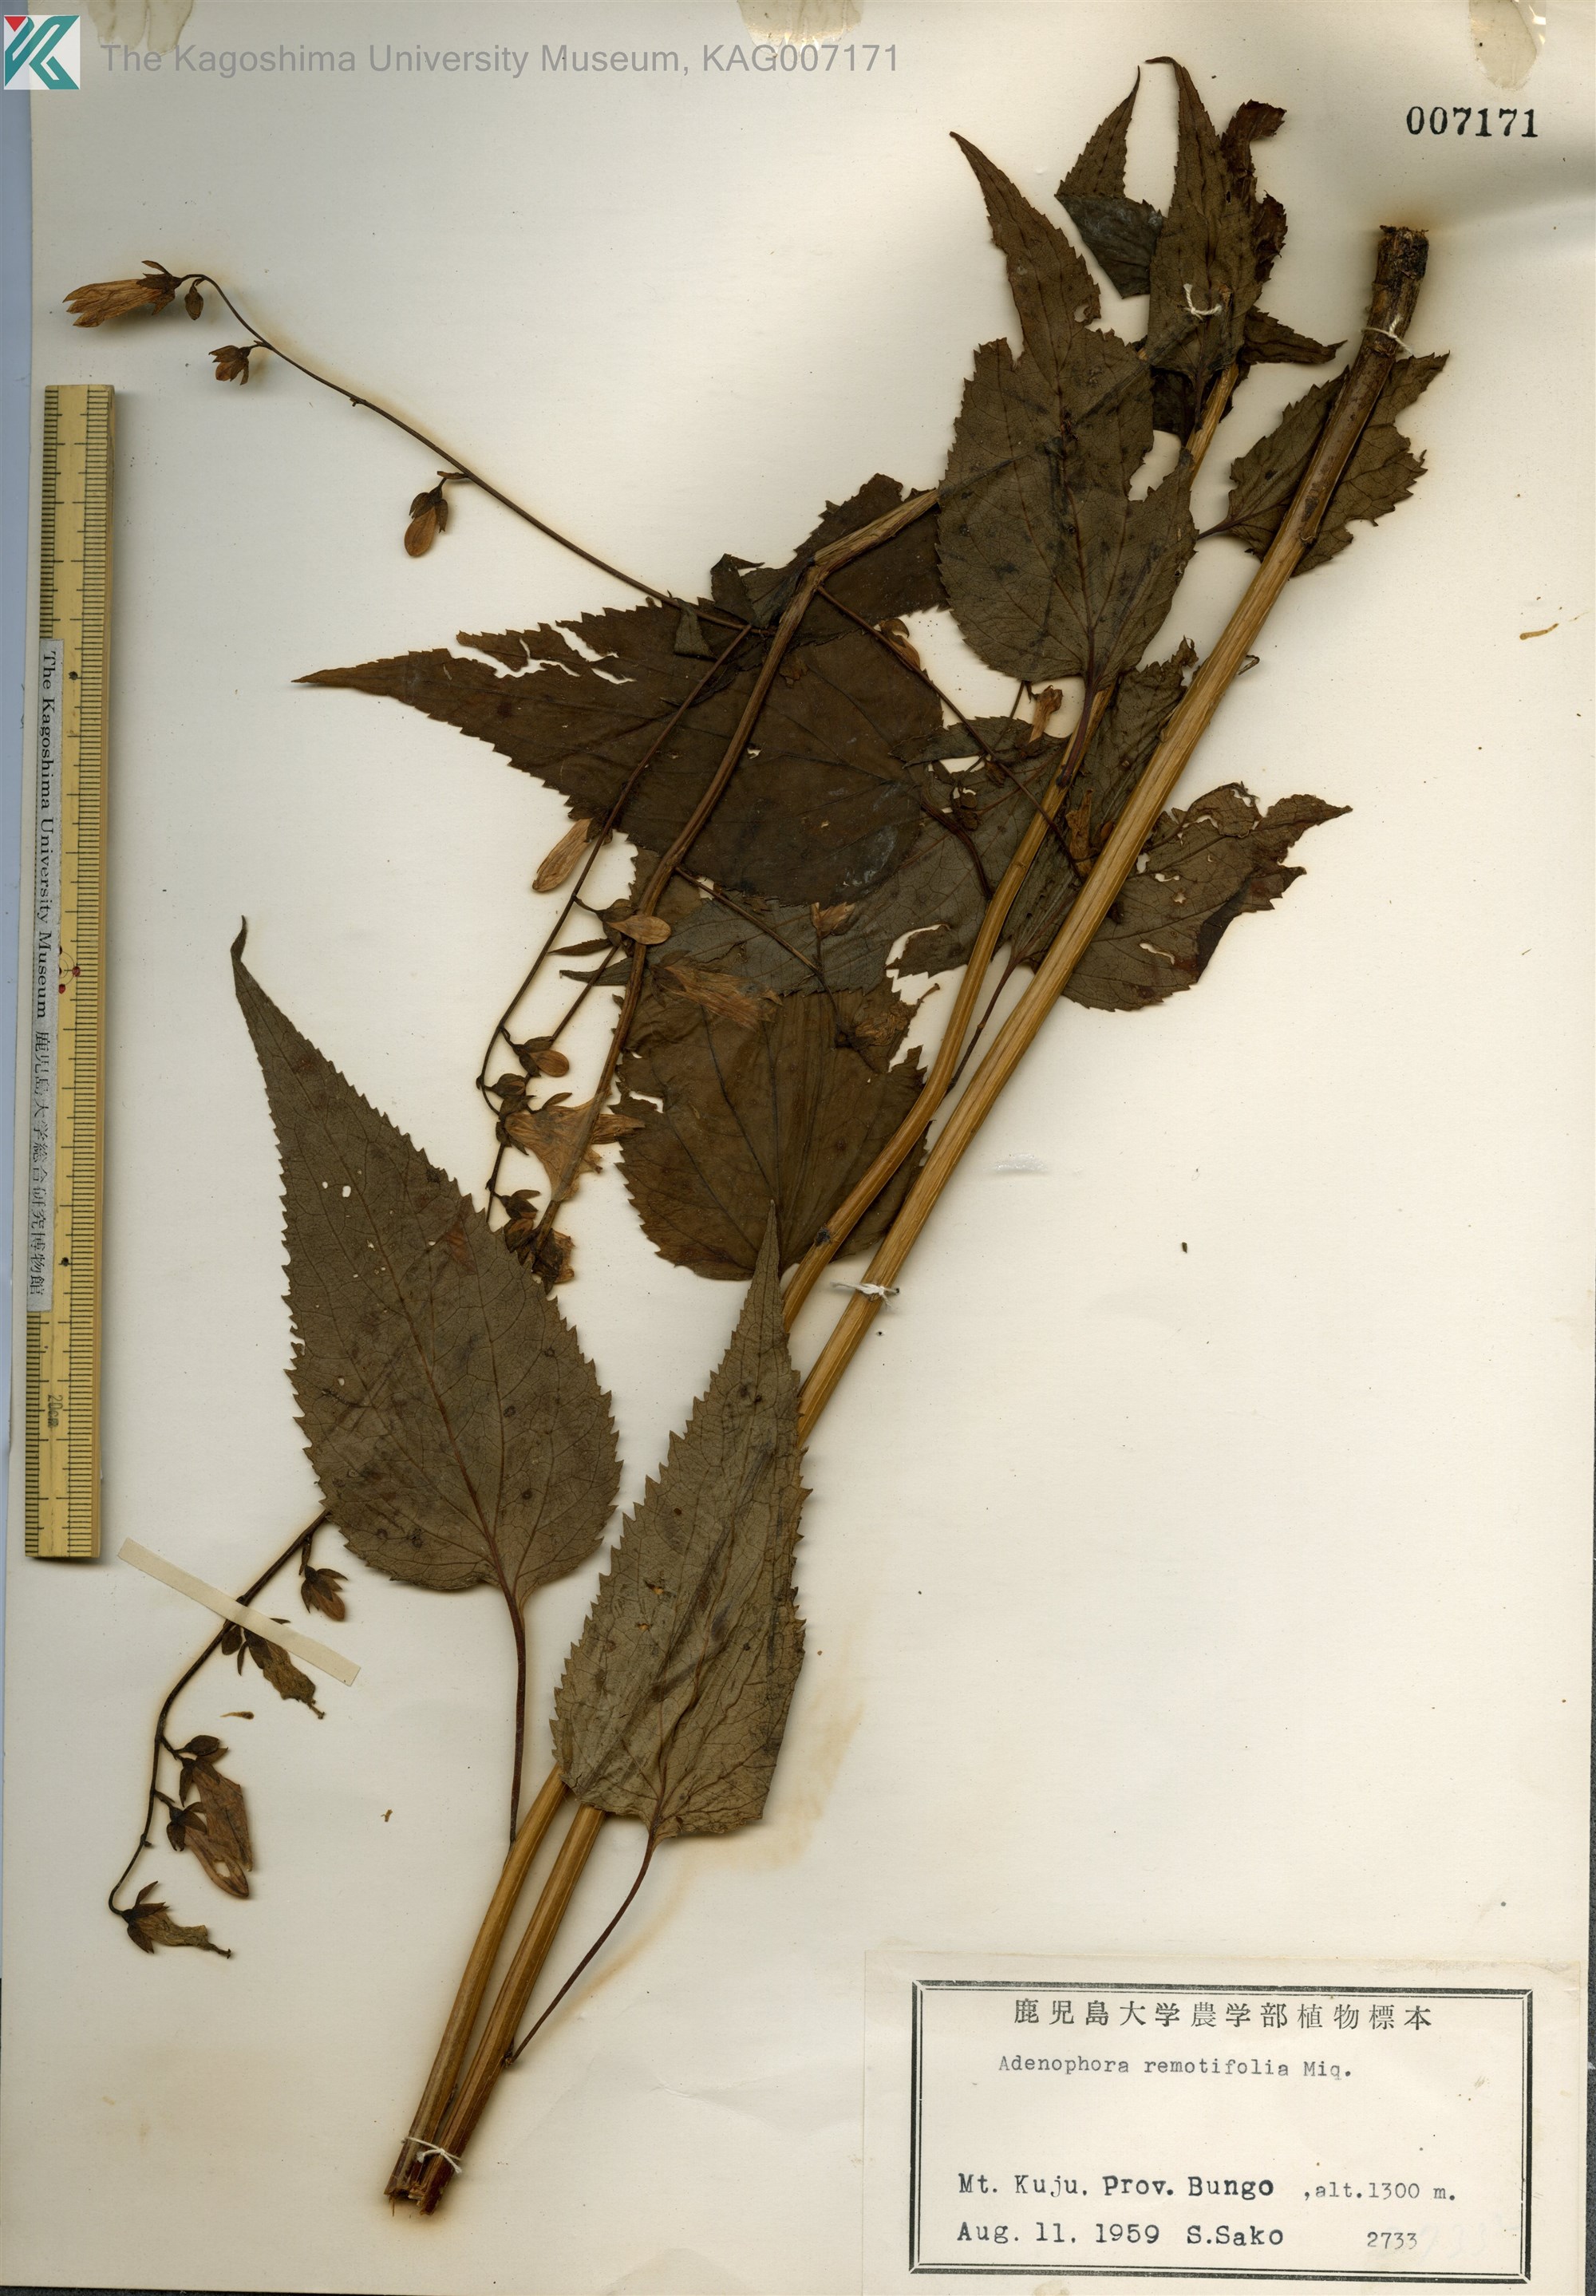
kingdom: Plantae
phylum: Tracheophyta
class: Magnoliopsida
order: Asterales
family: Campanulaceae
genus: Adenophora
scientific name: Adenophora remotiflora
